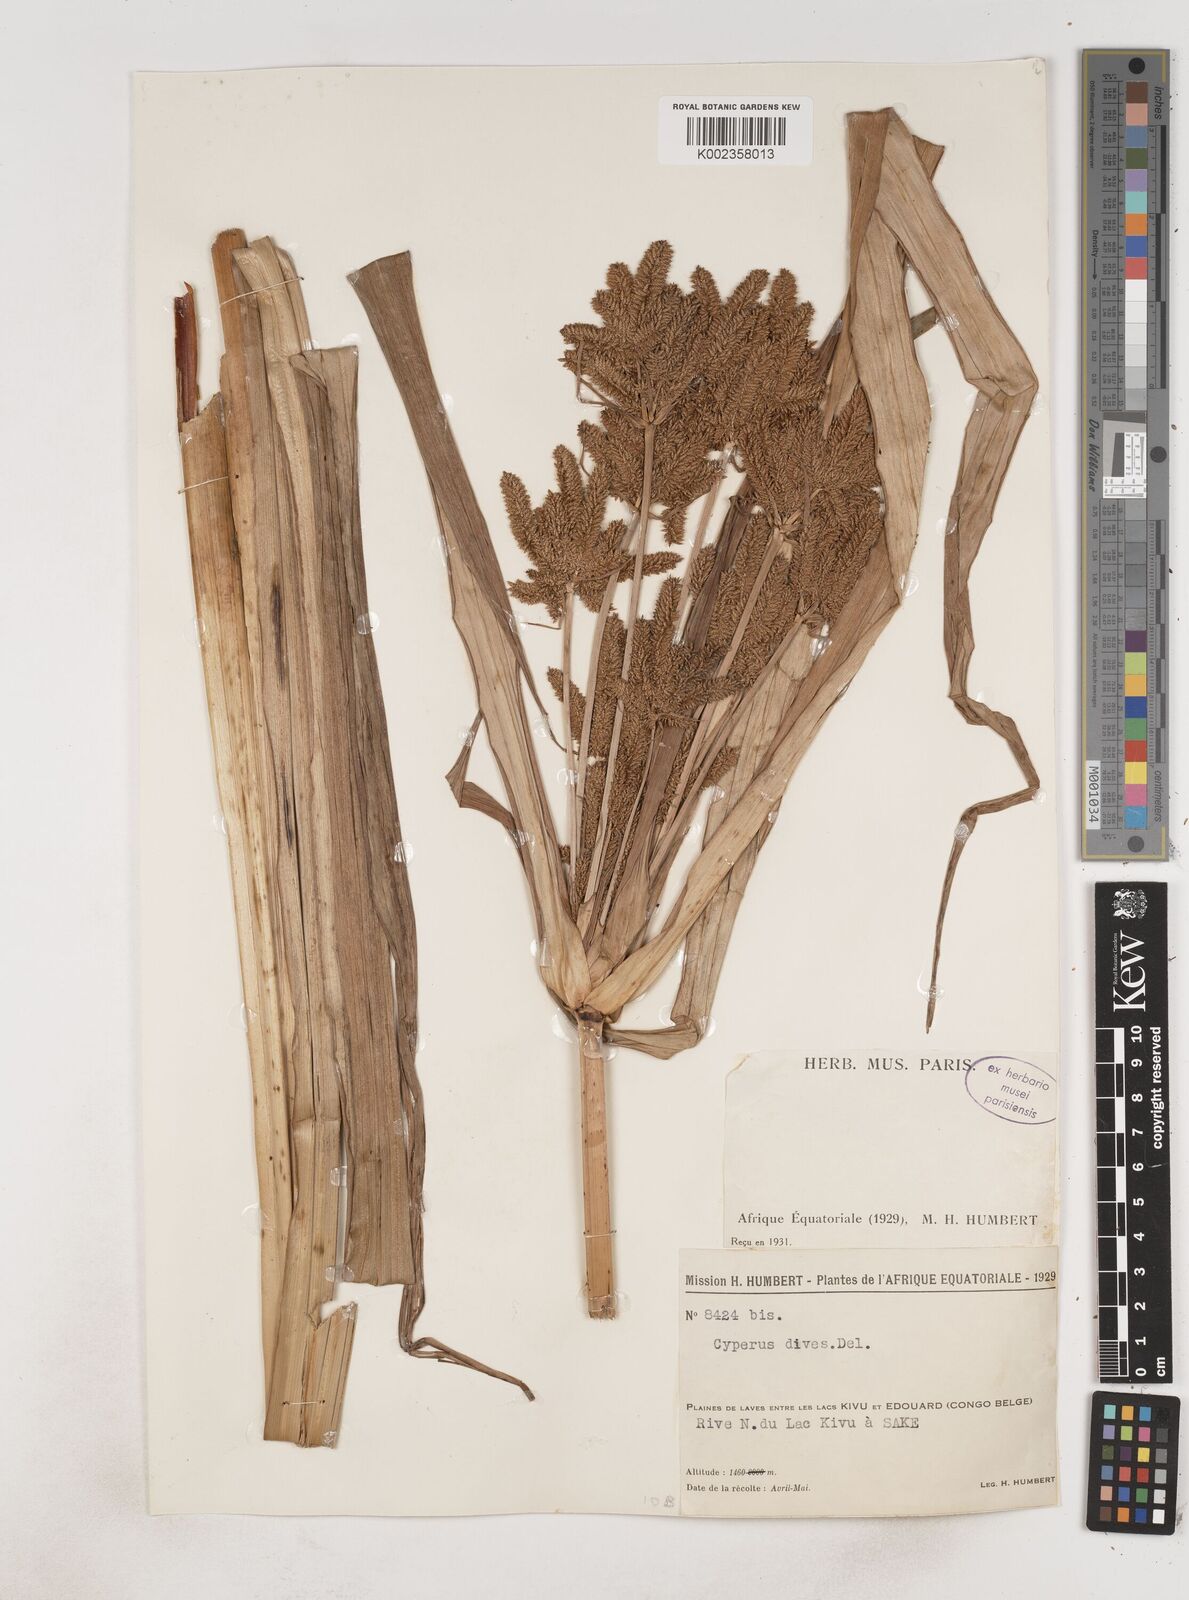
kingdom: Plantae
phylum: Tracheophyta
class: Liliopsida
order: Poales
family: Cyperaceae
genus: Cyperus
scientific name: Cyperus dives
